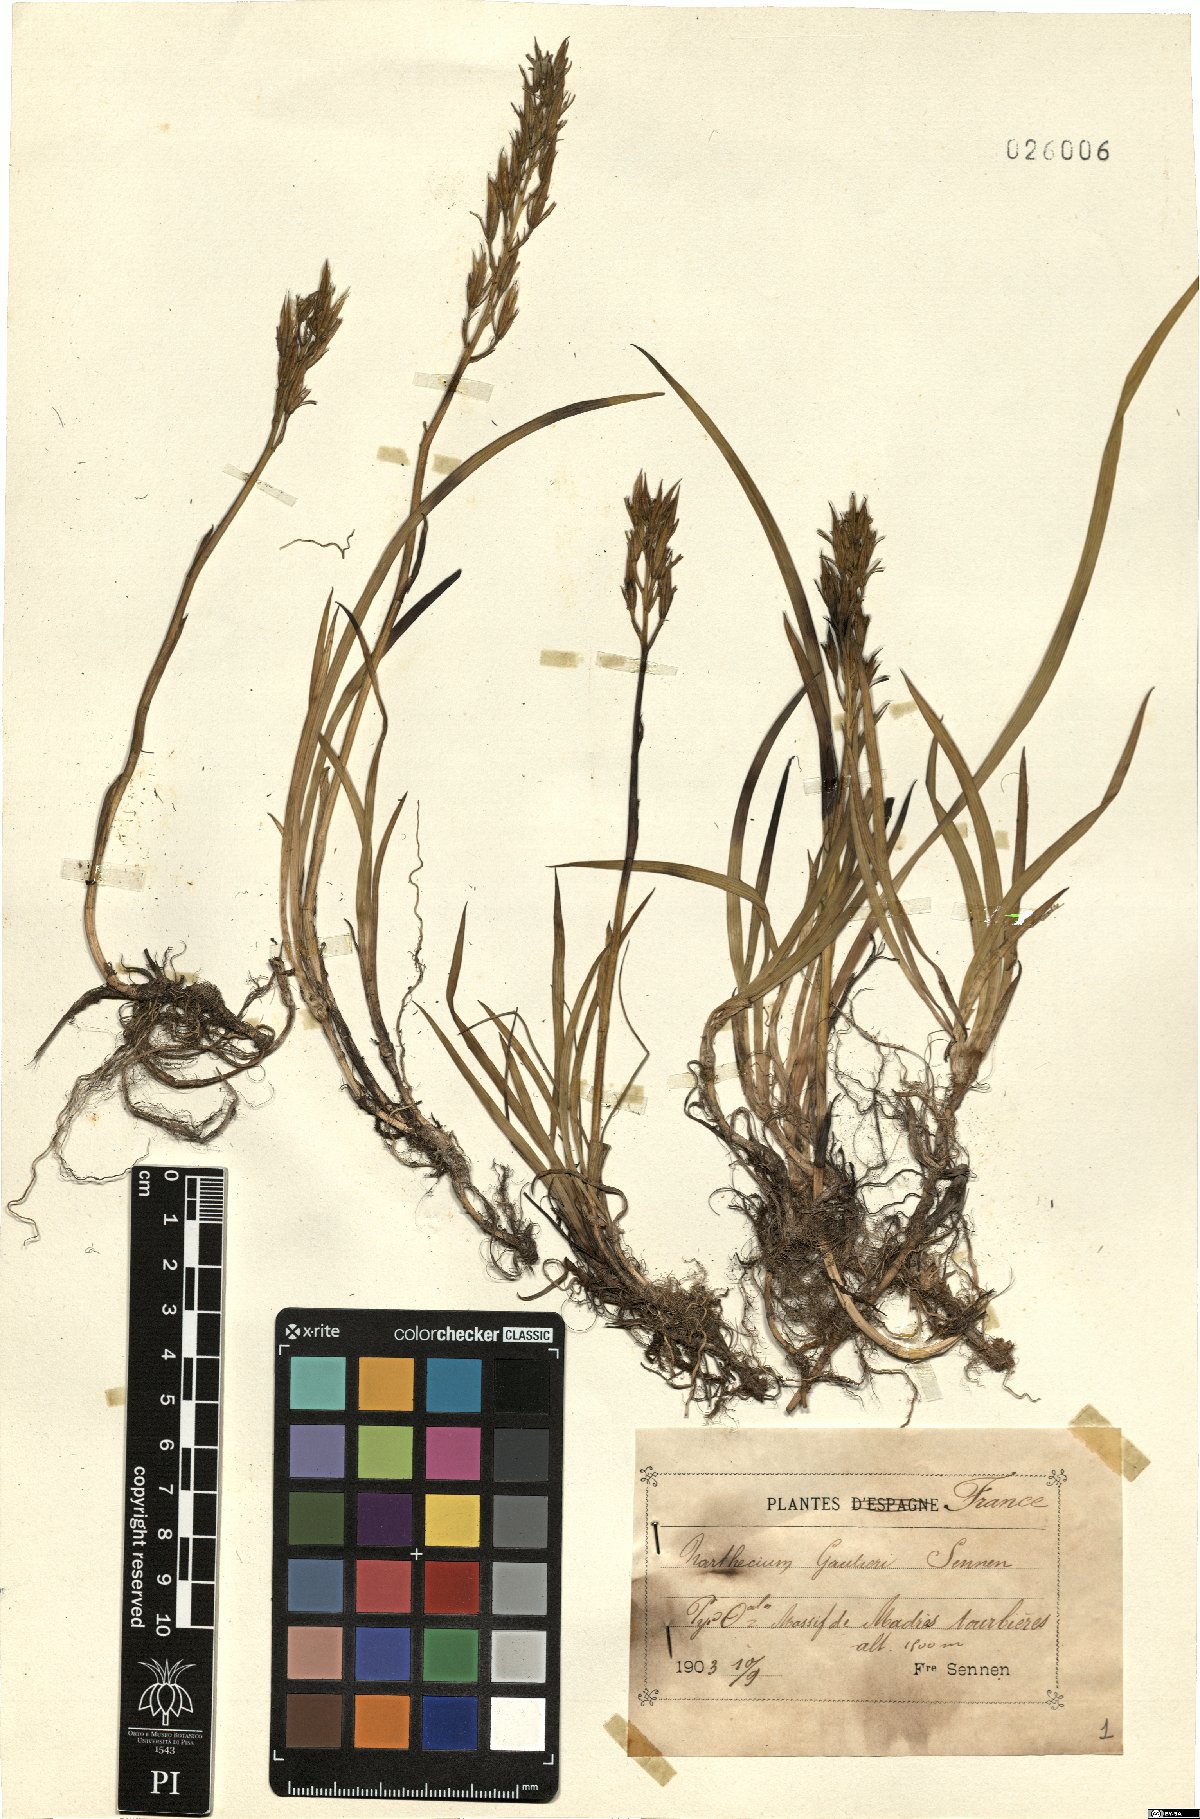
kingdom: Plantae
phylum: Tracheophyta
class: Liliopsida
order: Dioscoreales
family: Nartheciaceae
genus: Narthecium
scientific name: Narthecium ossifragum
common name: Bog asphodel
